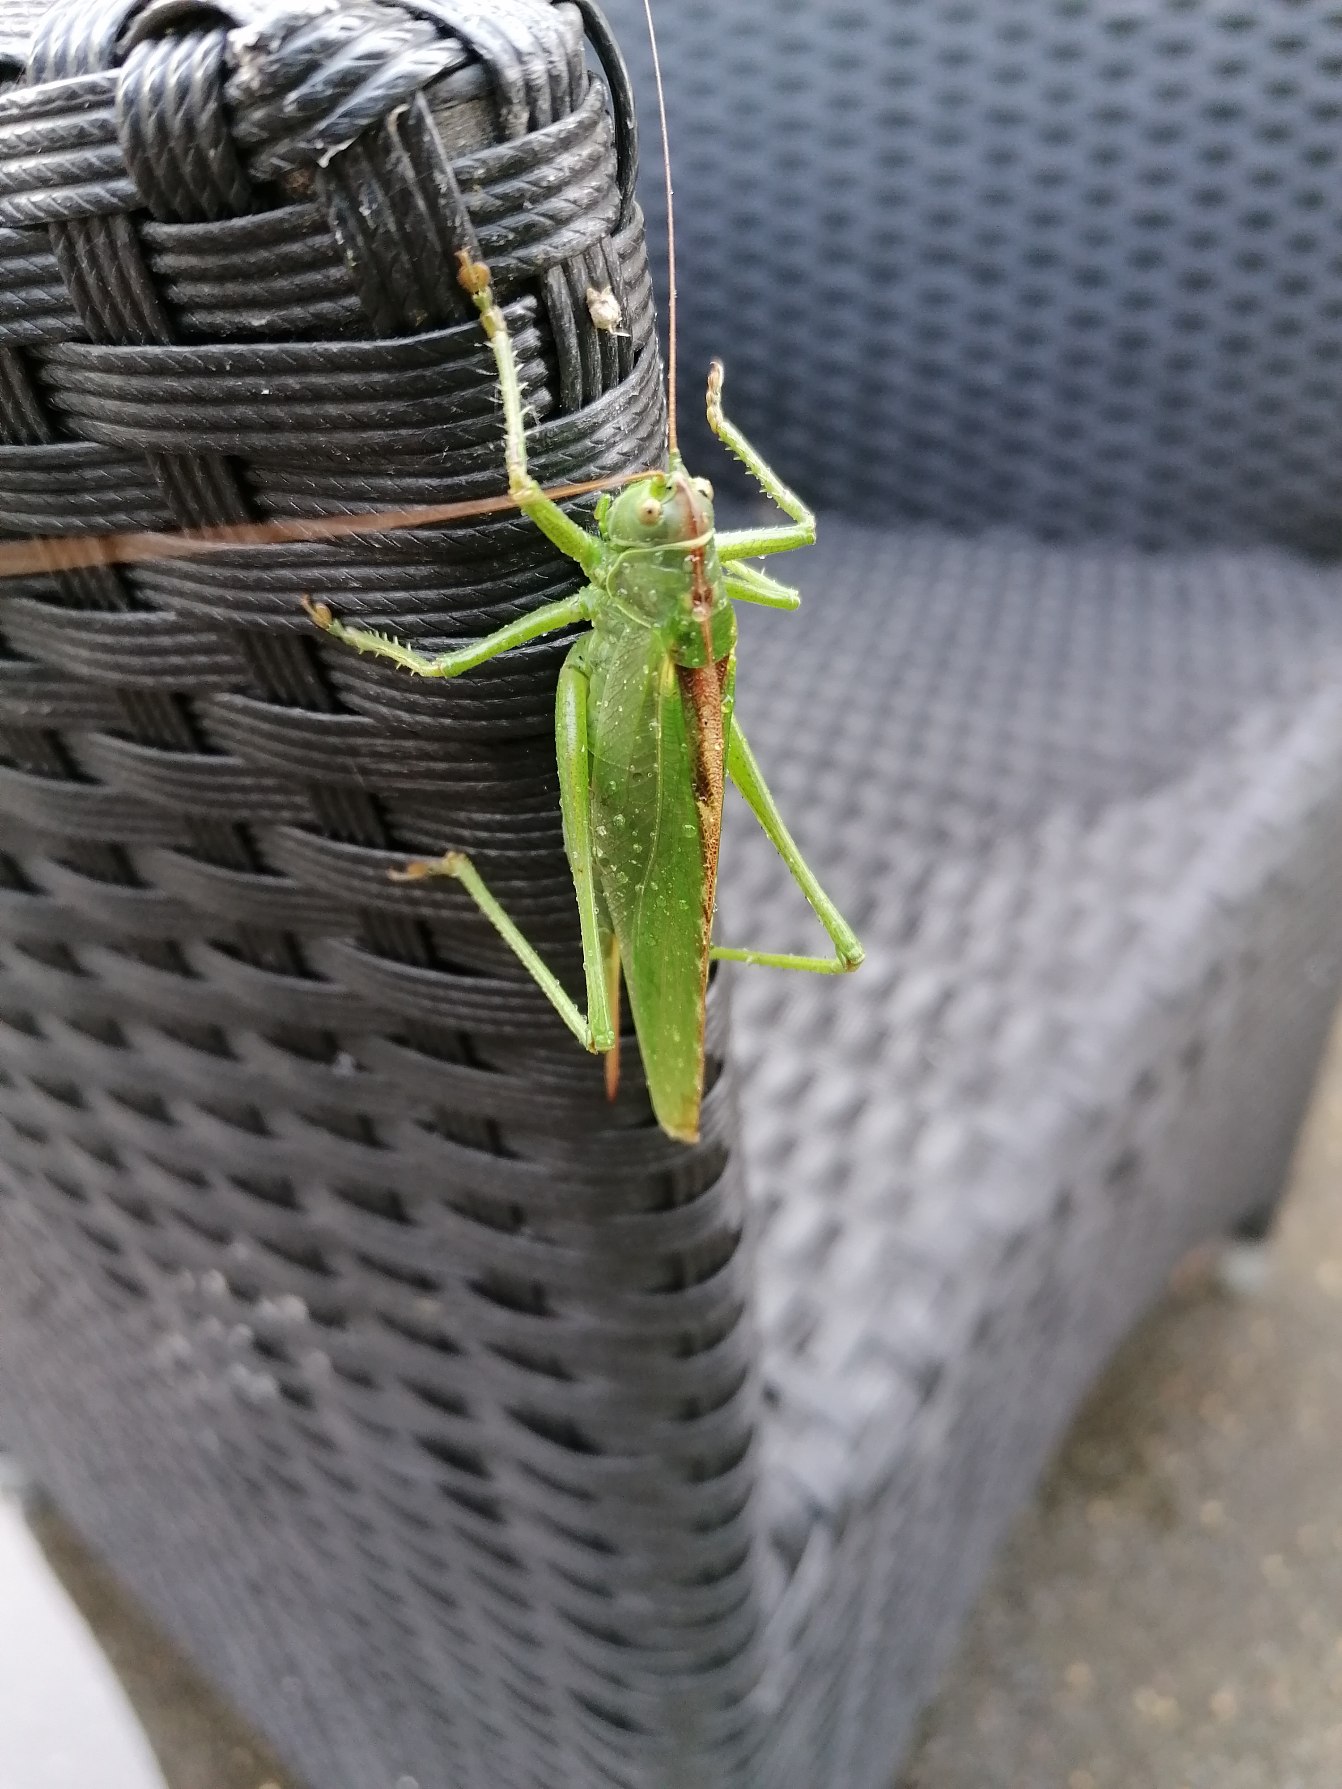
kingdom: Animalia
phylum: Arthropoda
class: Insecta
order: Orthoptera
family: Tettigoniidae
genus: Tettigonia
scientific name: Tettigonia viridissima
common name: Stor grøn løvgræshoppe
